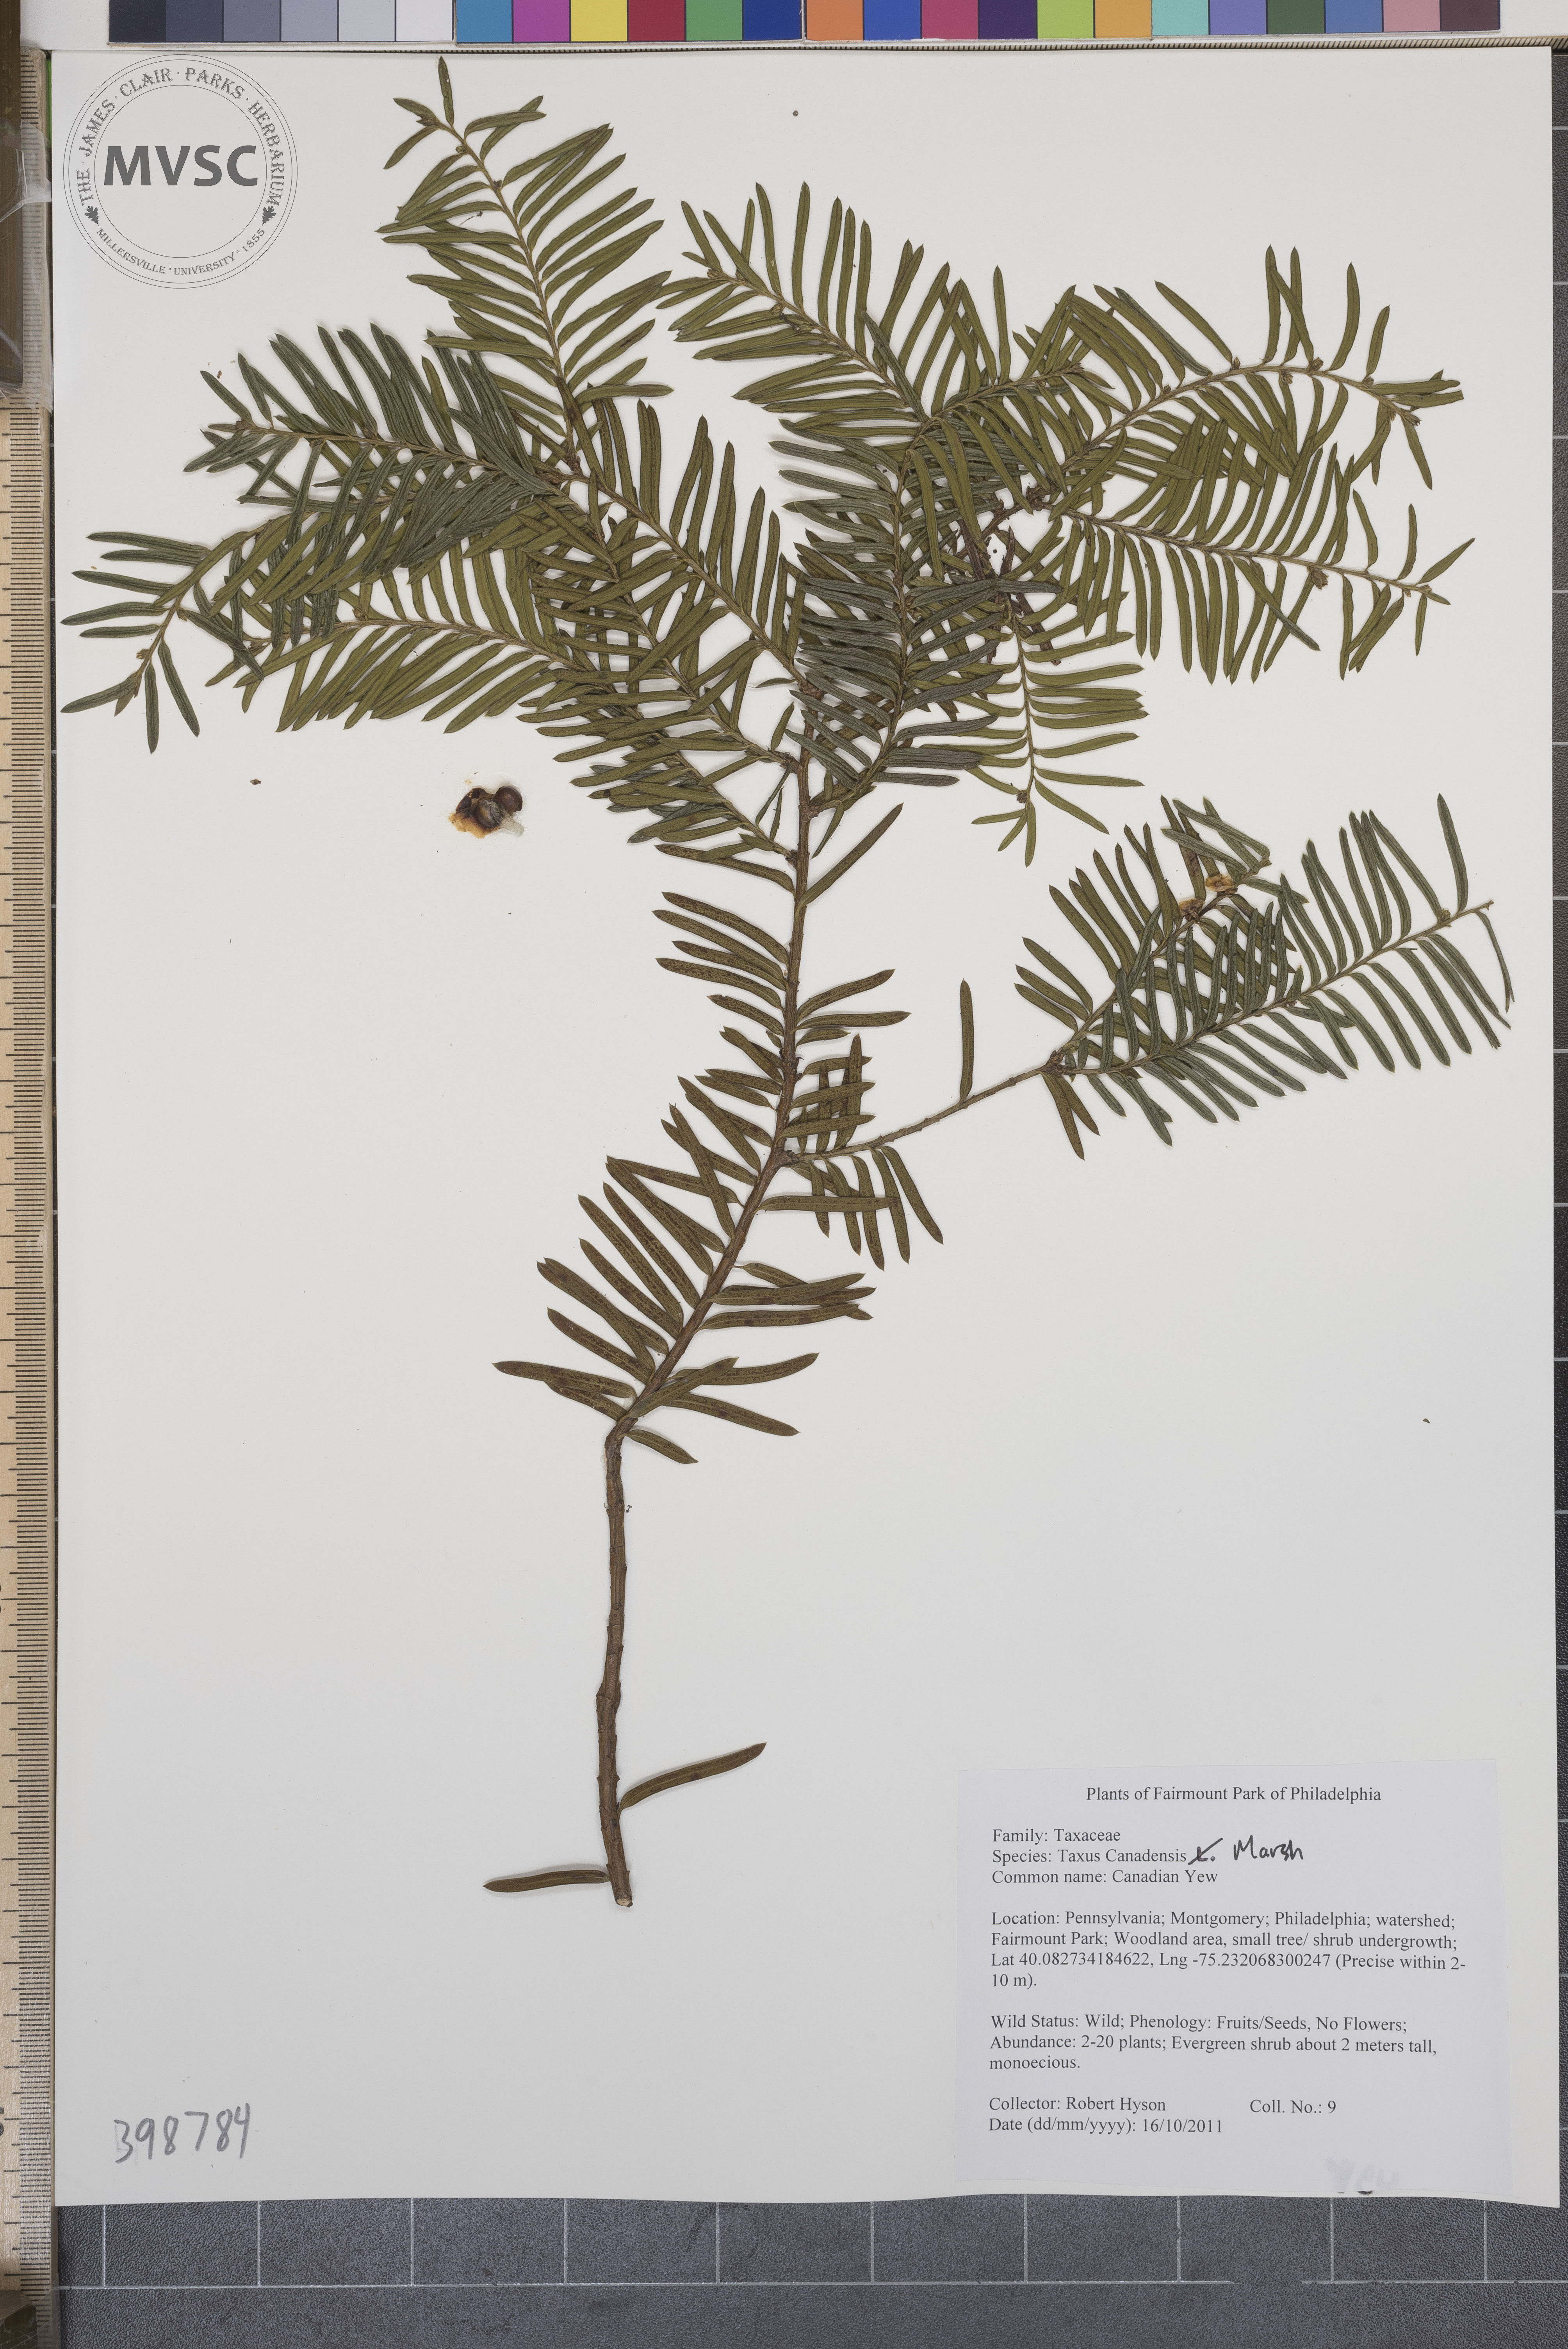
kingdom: Plantae
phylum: Tracheophyta
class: Pinopsida
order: Pinales
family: Taxaceae
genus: Taxus
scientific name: Taxus baccata
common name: English yew
